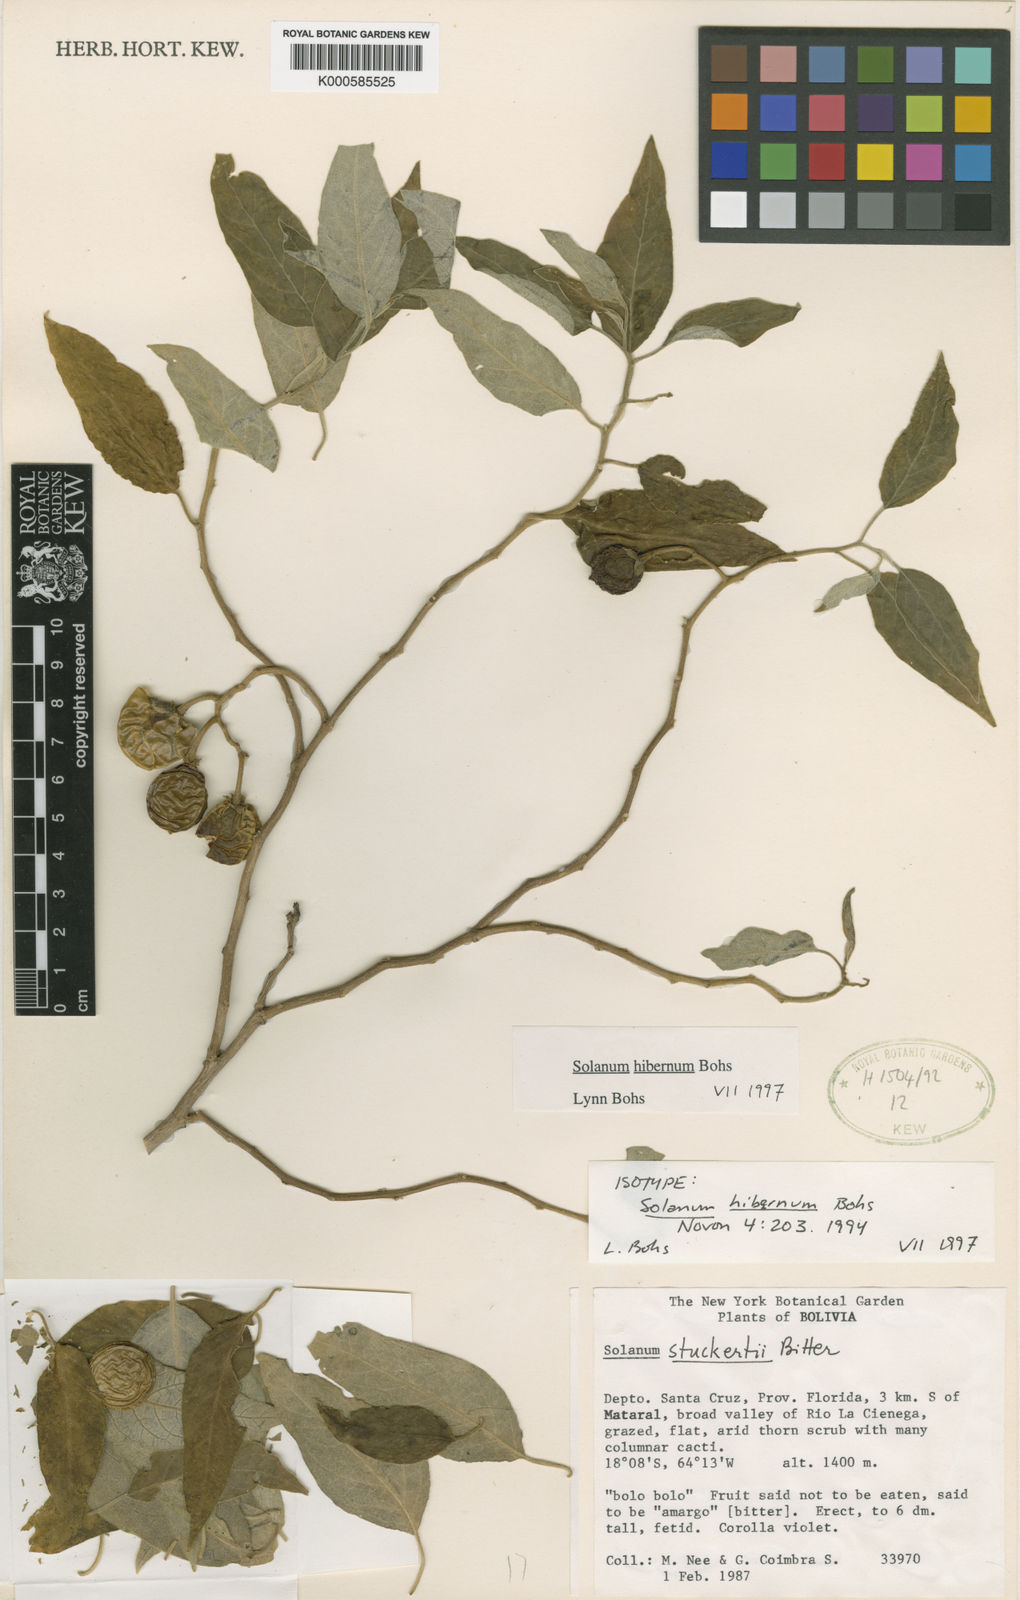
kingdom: Plantae
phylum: Tracheophyta
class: Magnoliopsida
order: Solanales
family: Solanaceae
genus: Solanum
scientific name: Solanum hibernum
